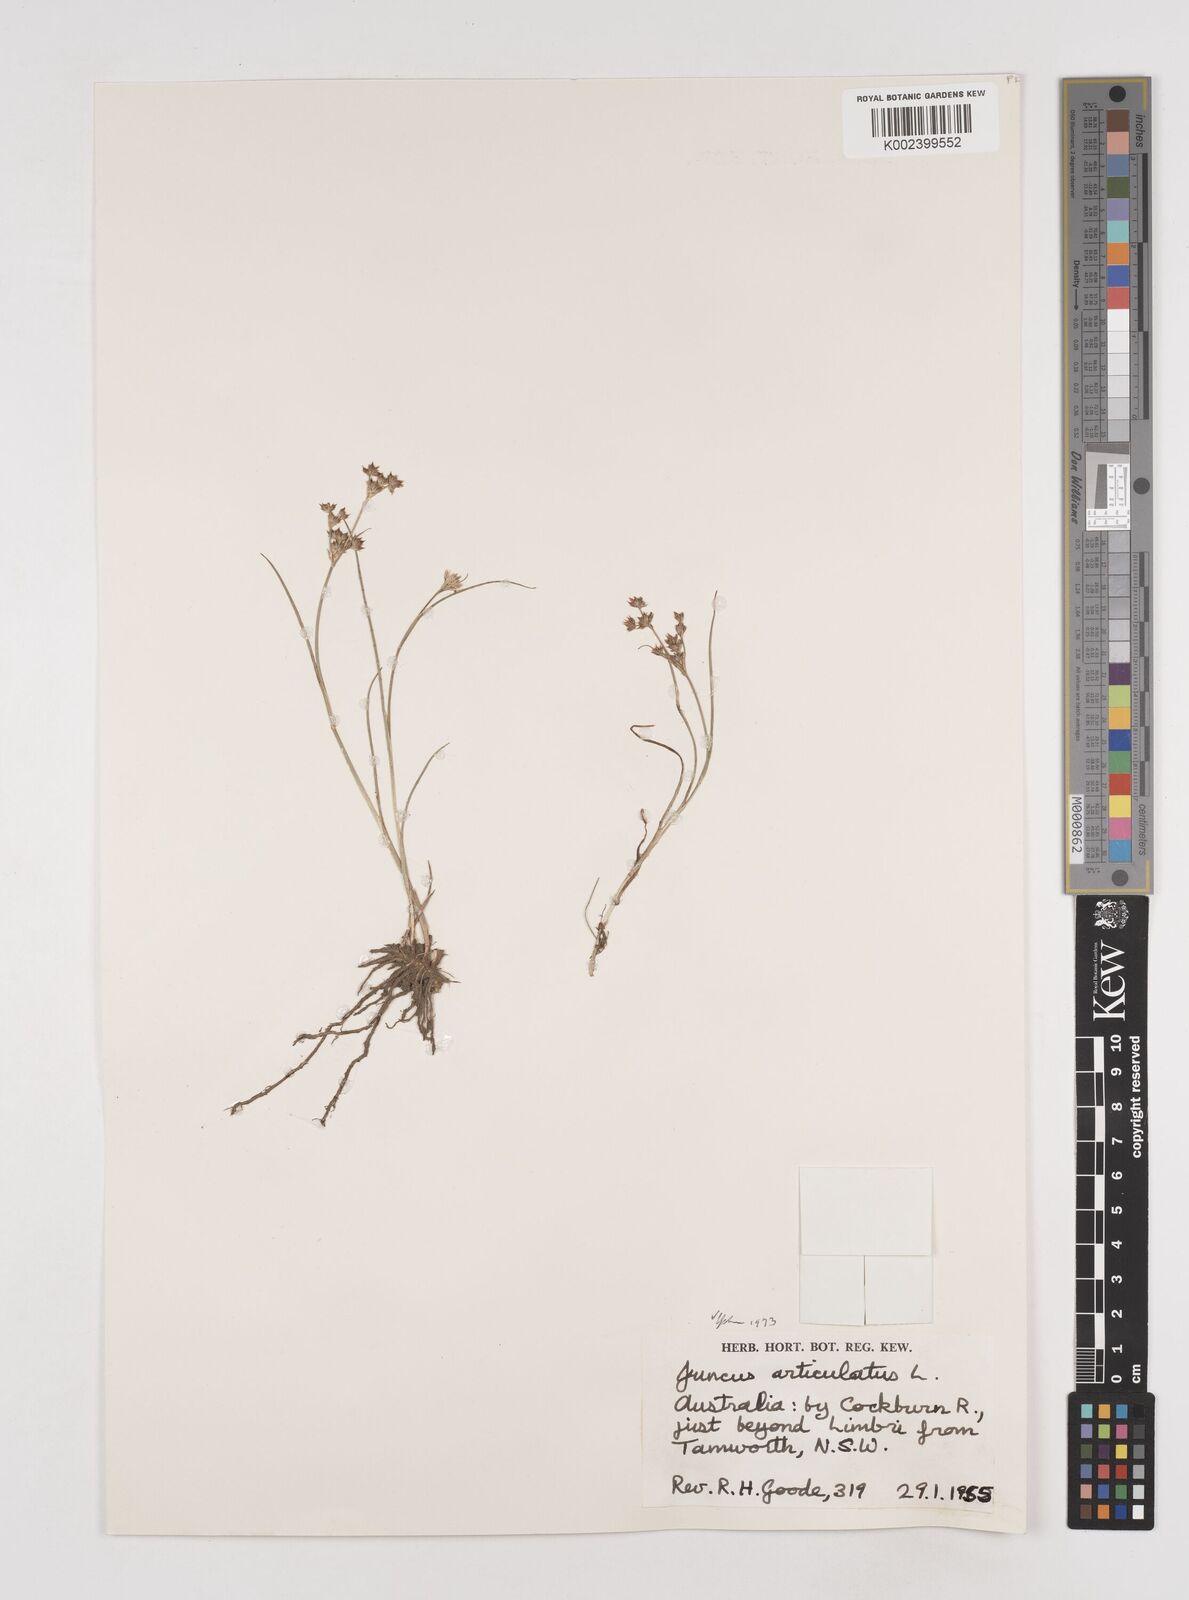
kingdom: Plantae
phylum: Tracheophyta
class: Liliopsida
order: Poales
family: Juncaceae
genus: Juncus
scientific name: Juncus articulatus
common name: Jointed rush
